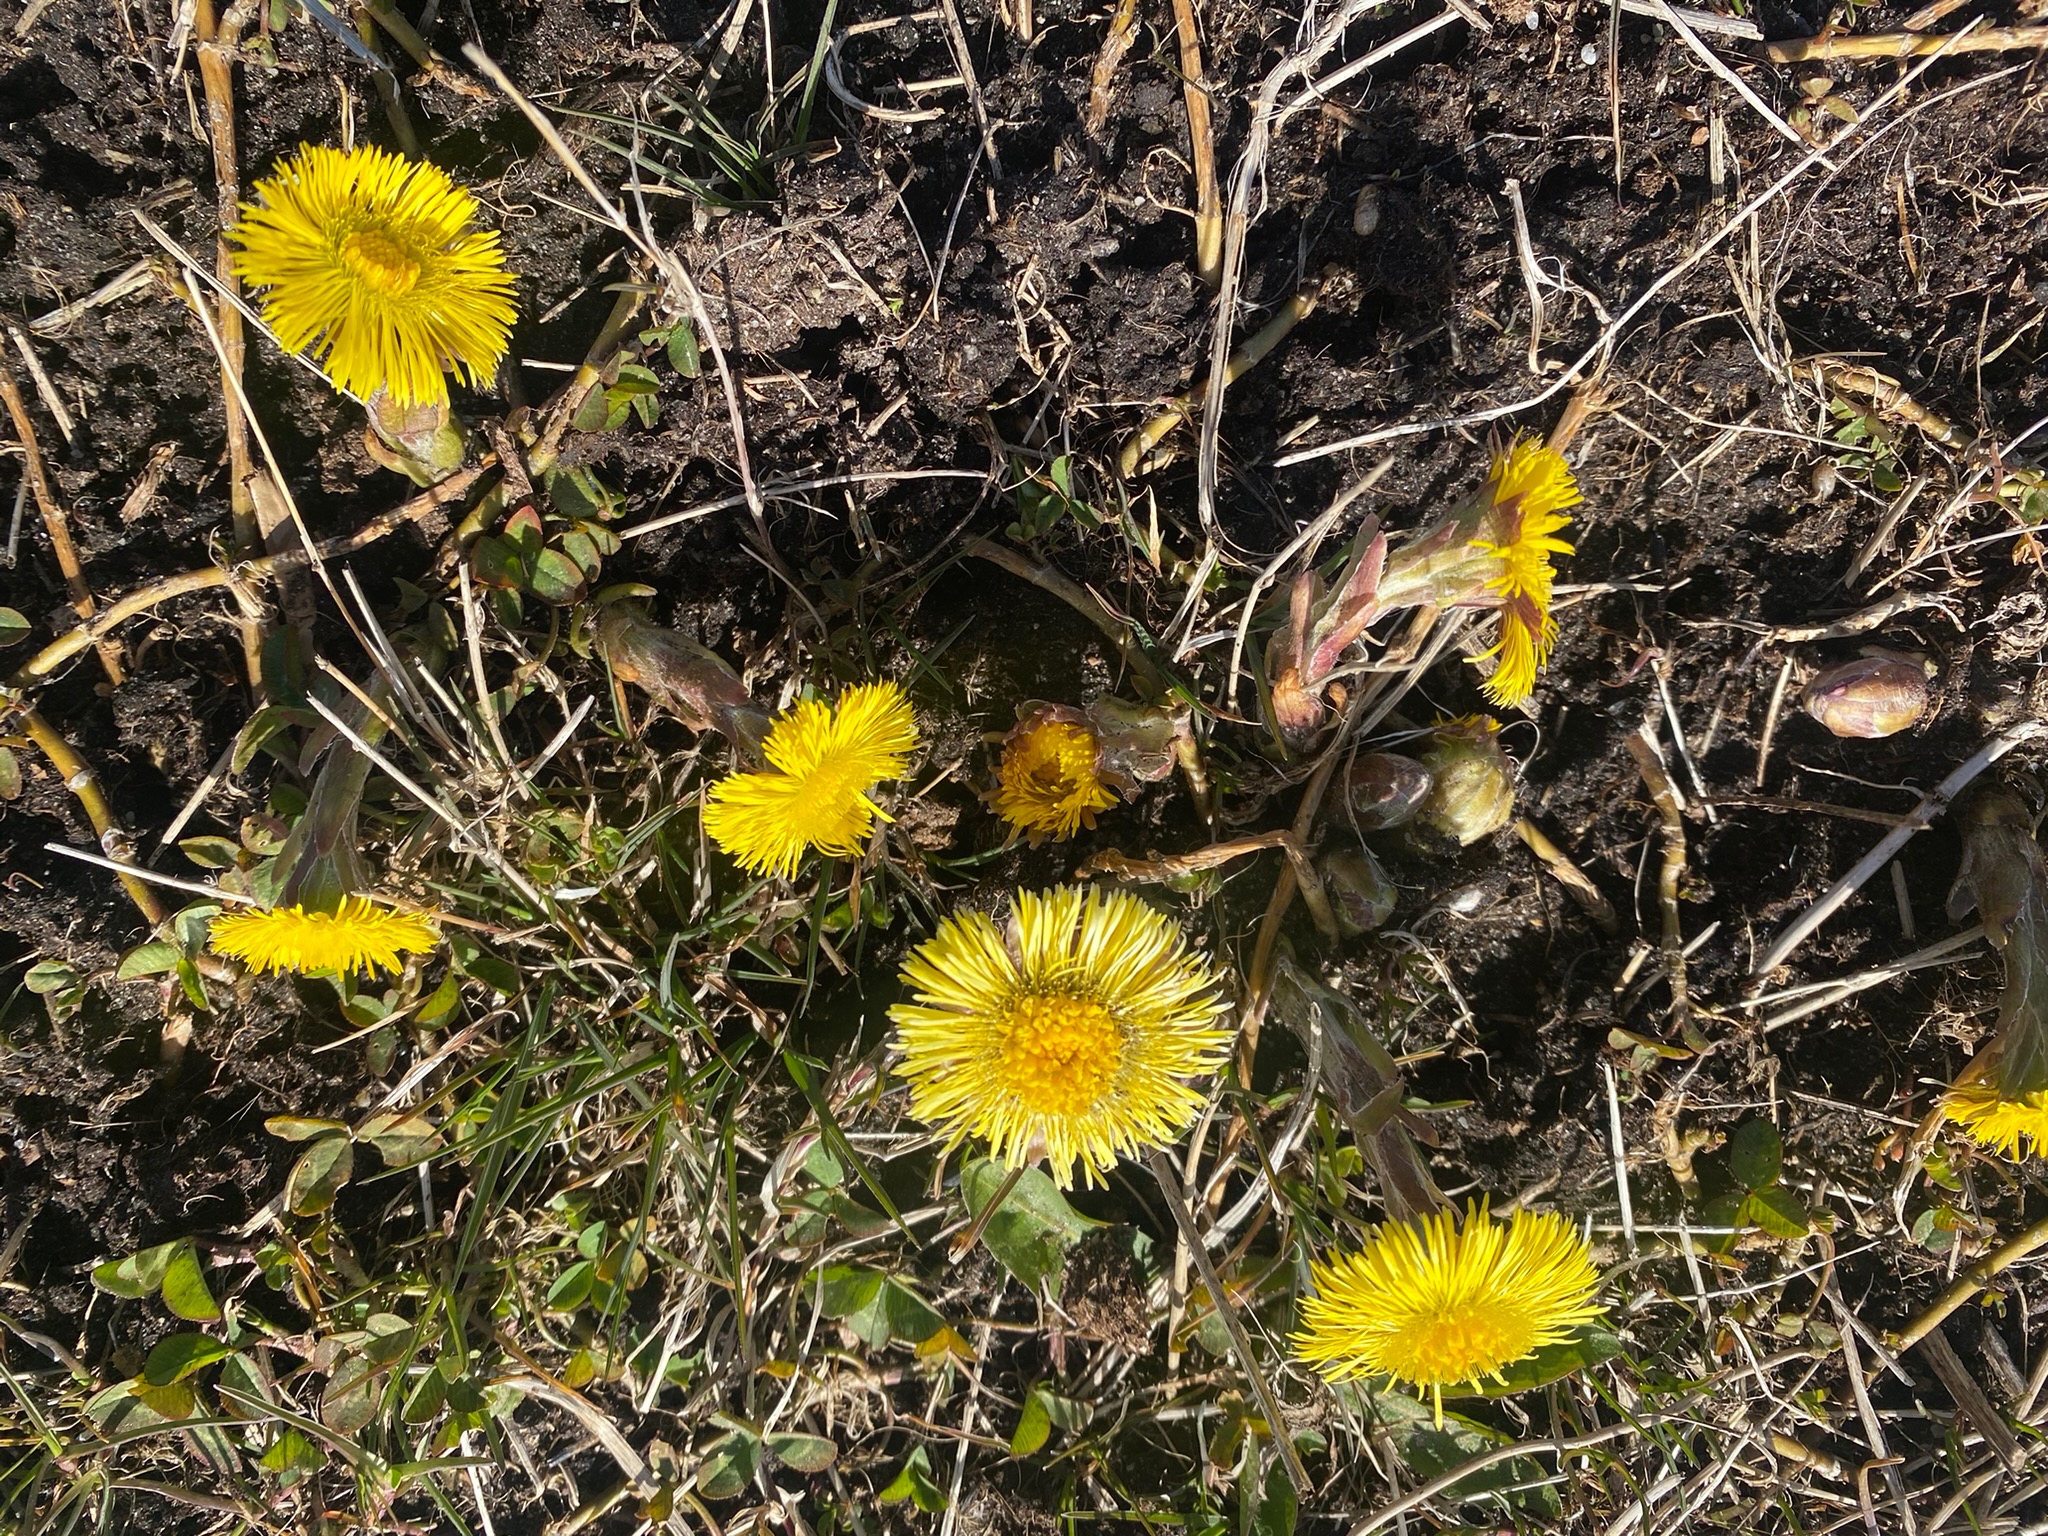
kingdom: Plantae
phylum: Tracheophyta
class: Magnoliopsida
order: Asterales
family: Asteraceae
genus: Tussilago
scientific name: Tussilago farfara
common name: Følfod
